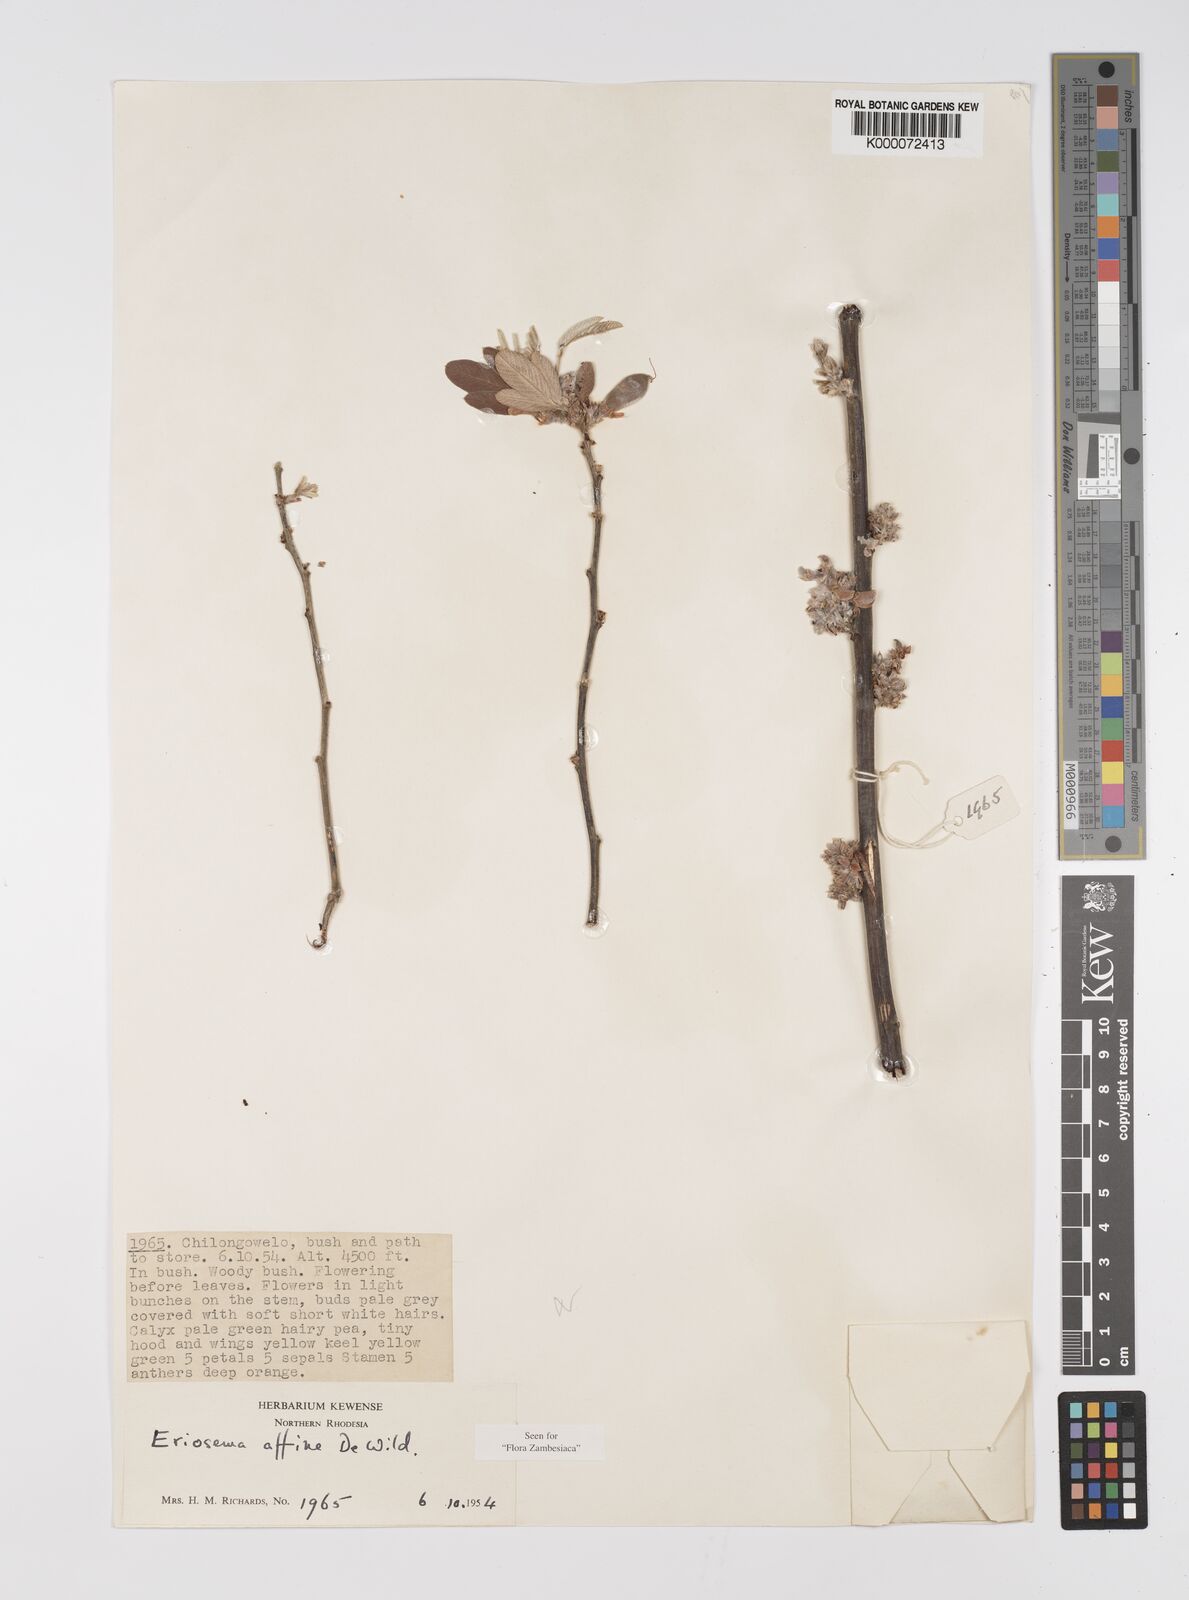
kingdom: Plantae
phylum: Tracheophyta
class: Magnoliopsida
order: Fabales
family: Fabaceae
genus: Eriosema
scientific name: Eriosema affine
